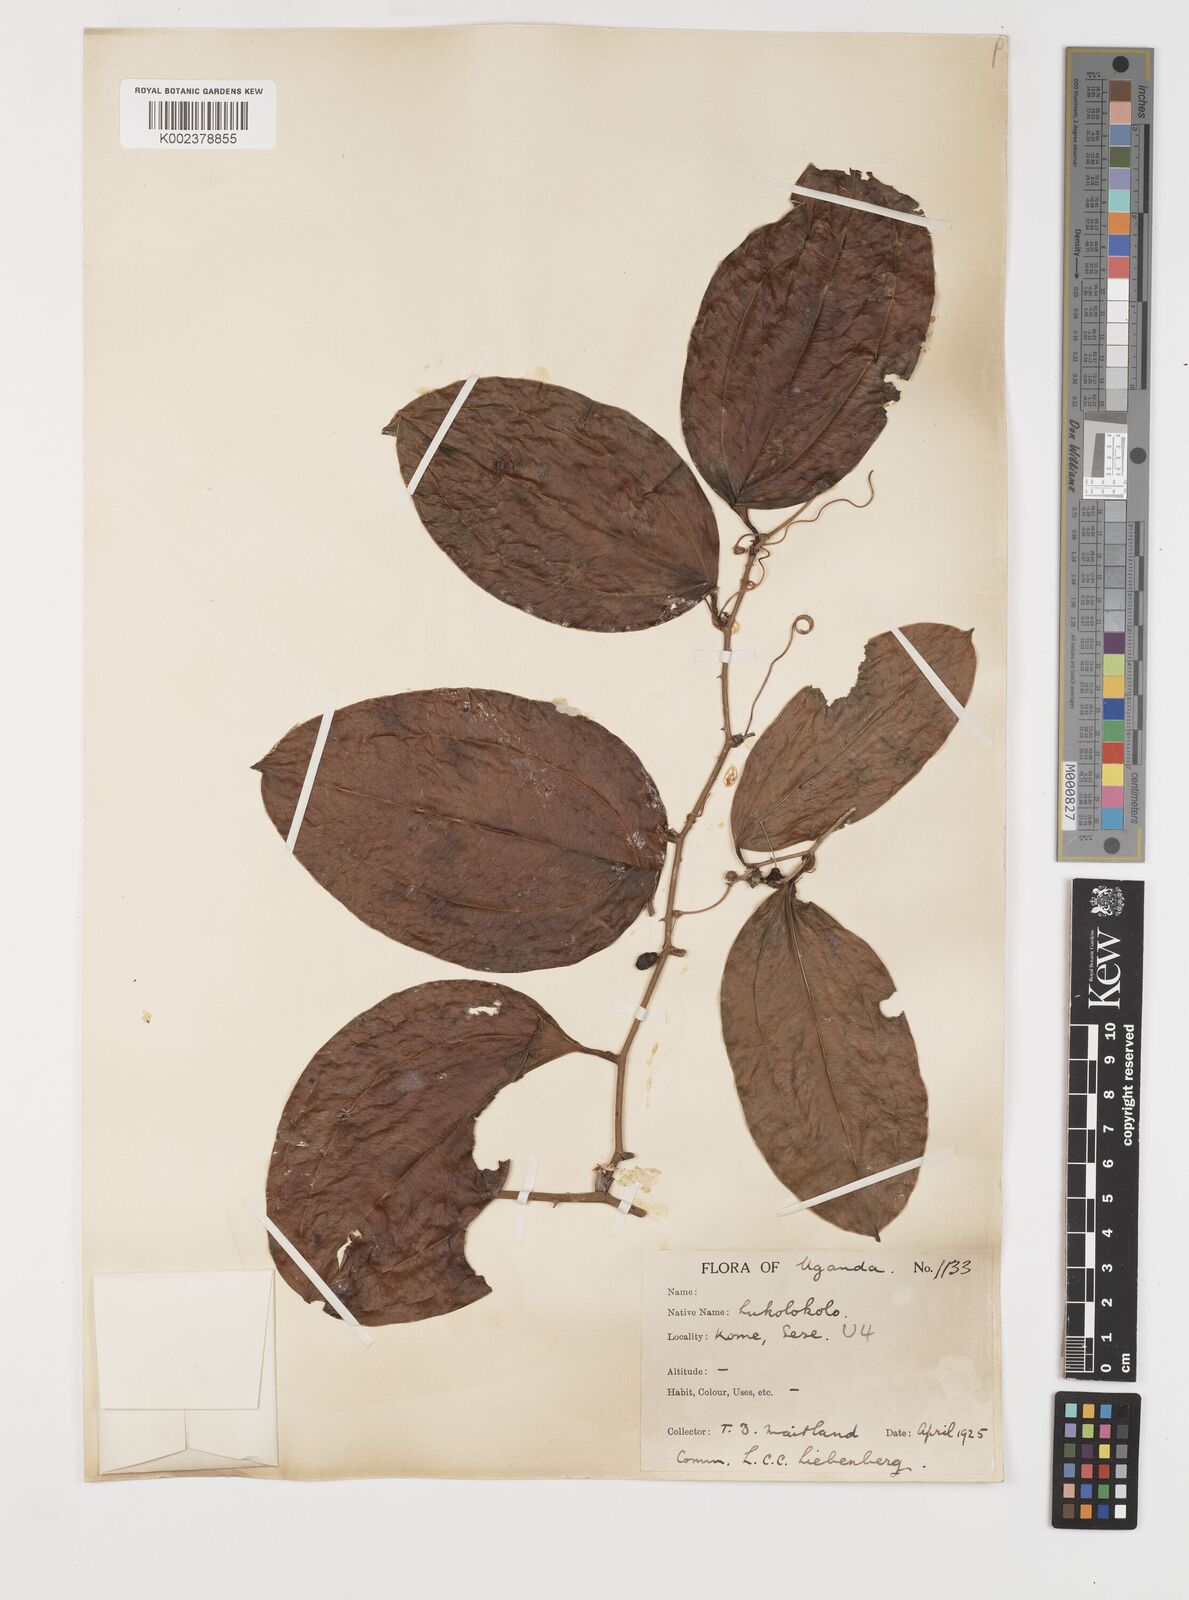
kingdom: Plantae
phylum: Tracheophyta
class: Liliopsida
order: Liliales
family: Smilacaceae
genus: Smilax
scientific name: Smilax anceps
